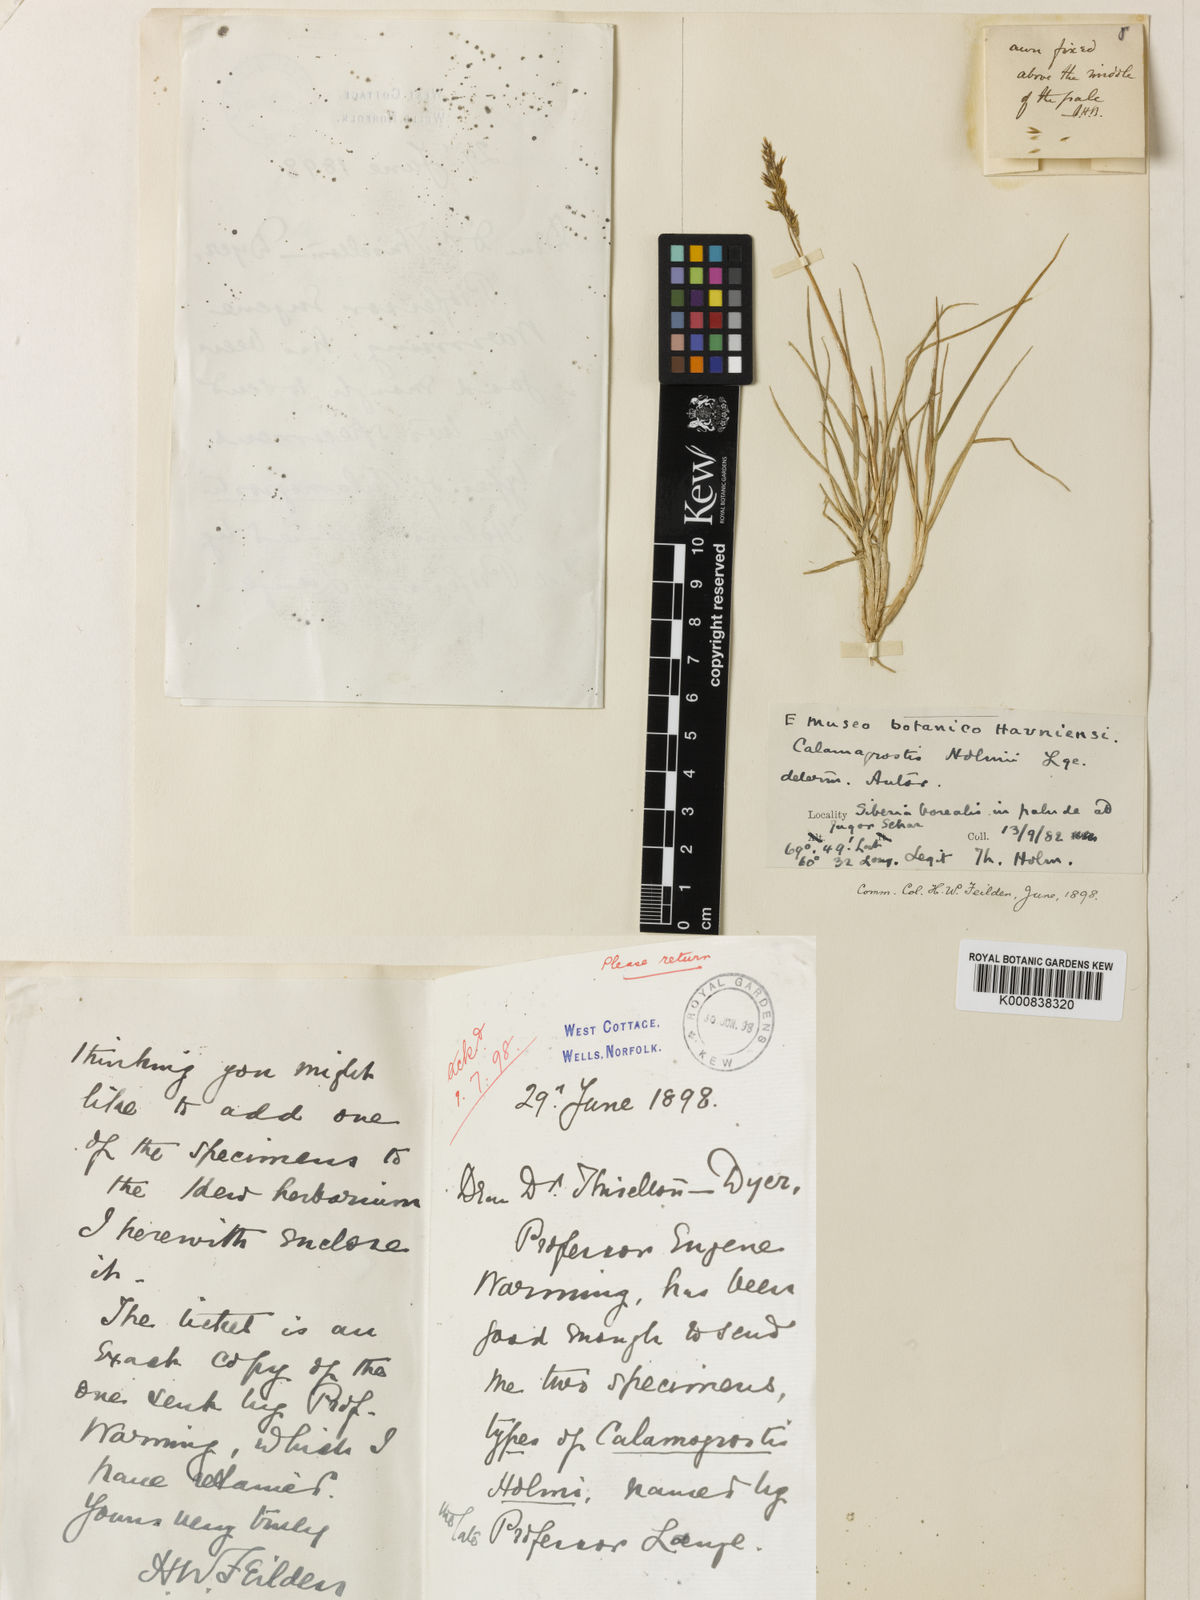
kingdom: Plantae
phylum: Tracheophyta
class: Liliopsida
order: Poales
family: Poaceae
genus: Calamagrostis
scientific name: Calamagrostis holmii
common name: Holm's reedgrass
